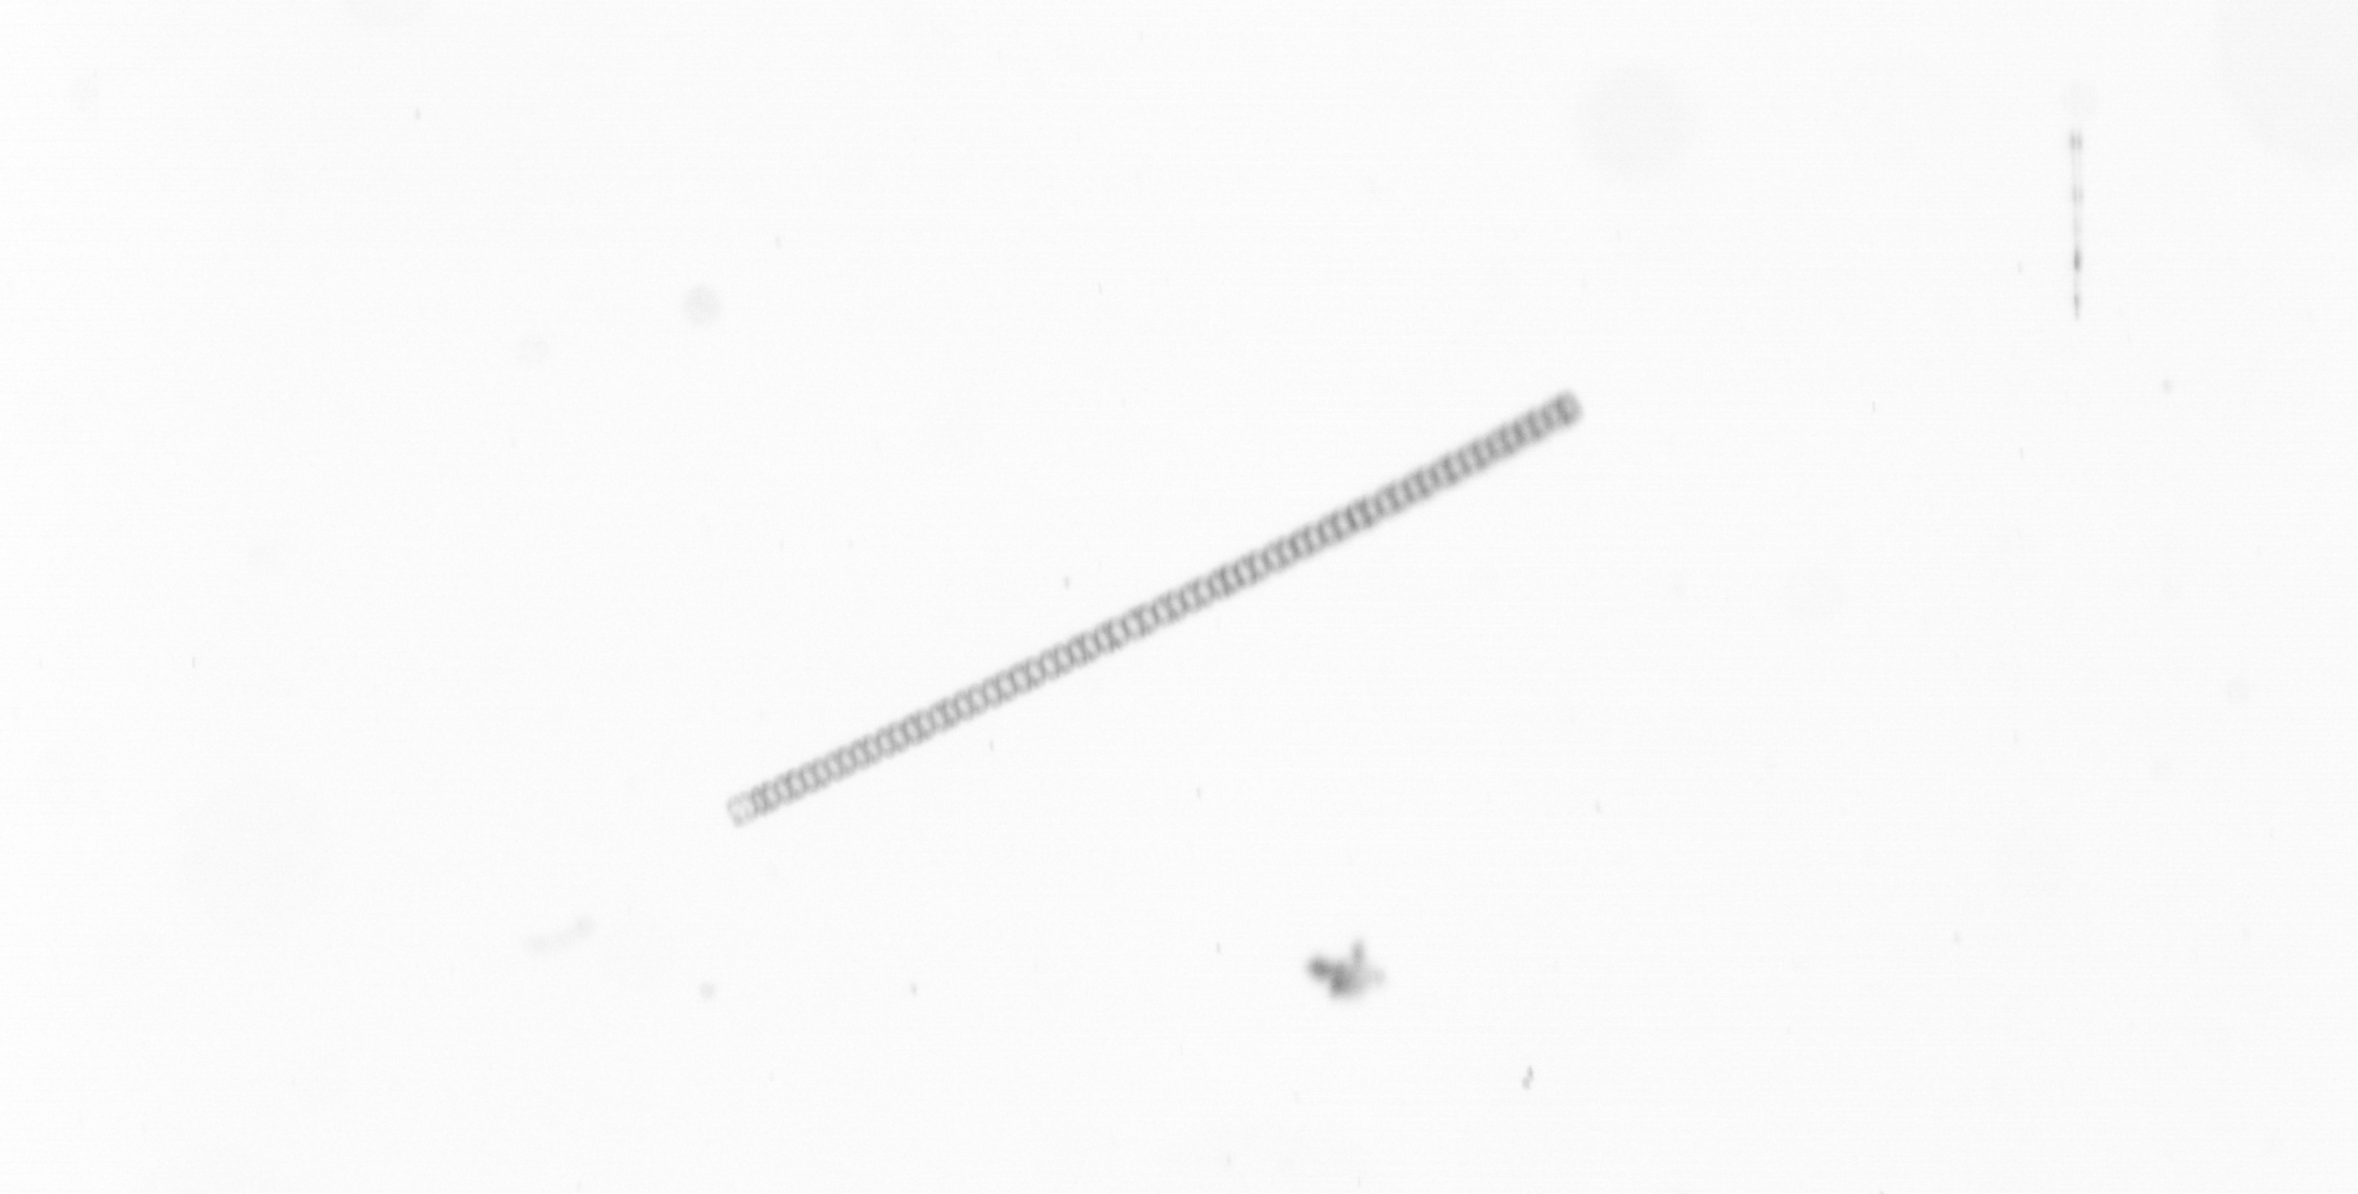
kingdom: Chromista
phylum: Ochrophyta
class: Bacillariophyceae
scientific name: Bacillariophyceae
